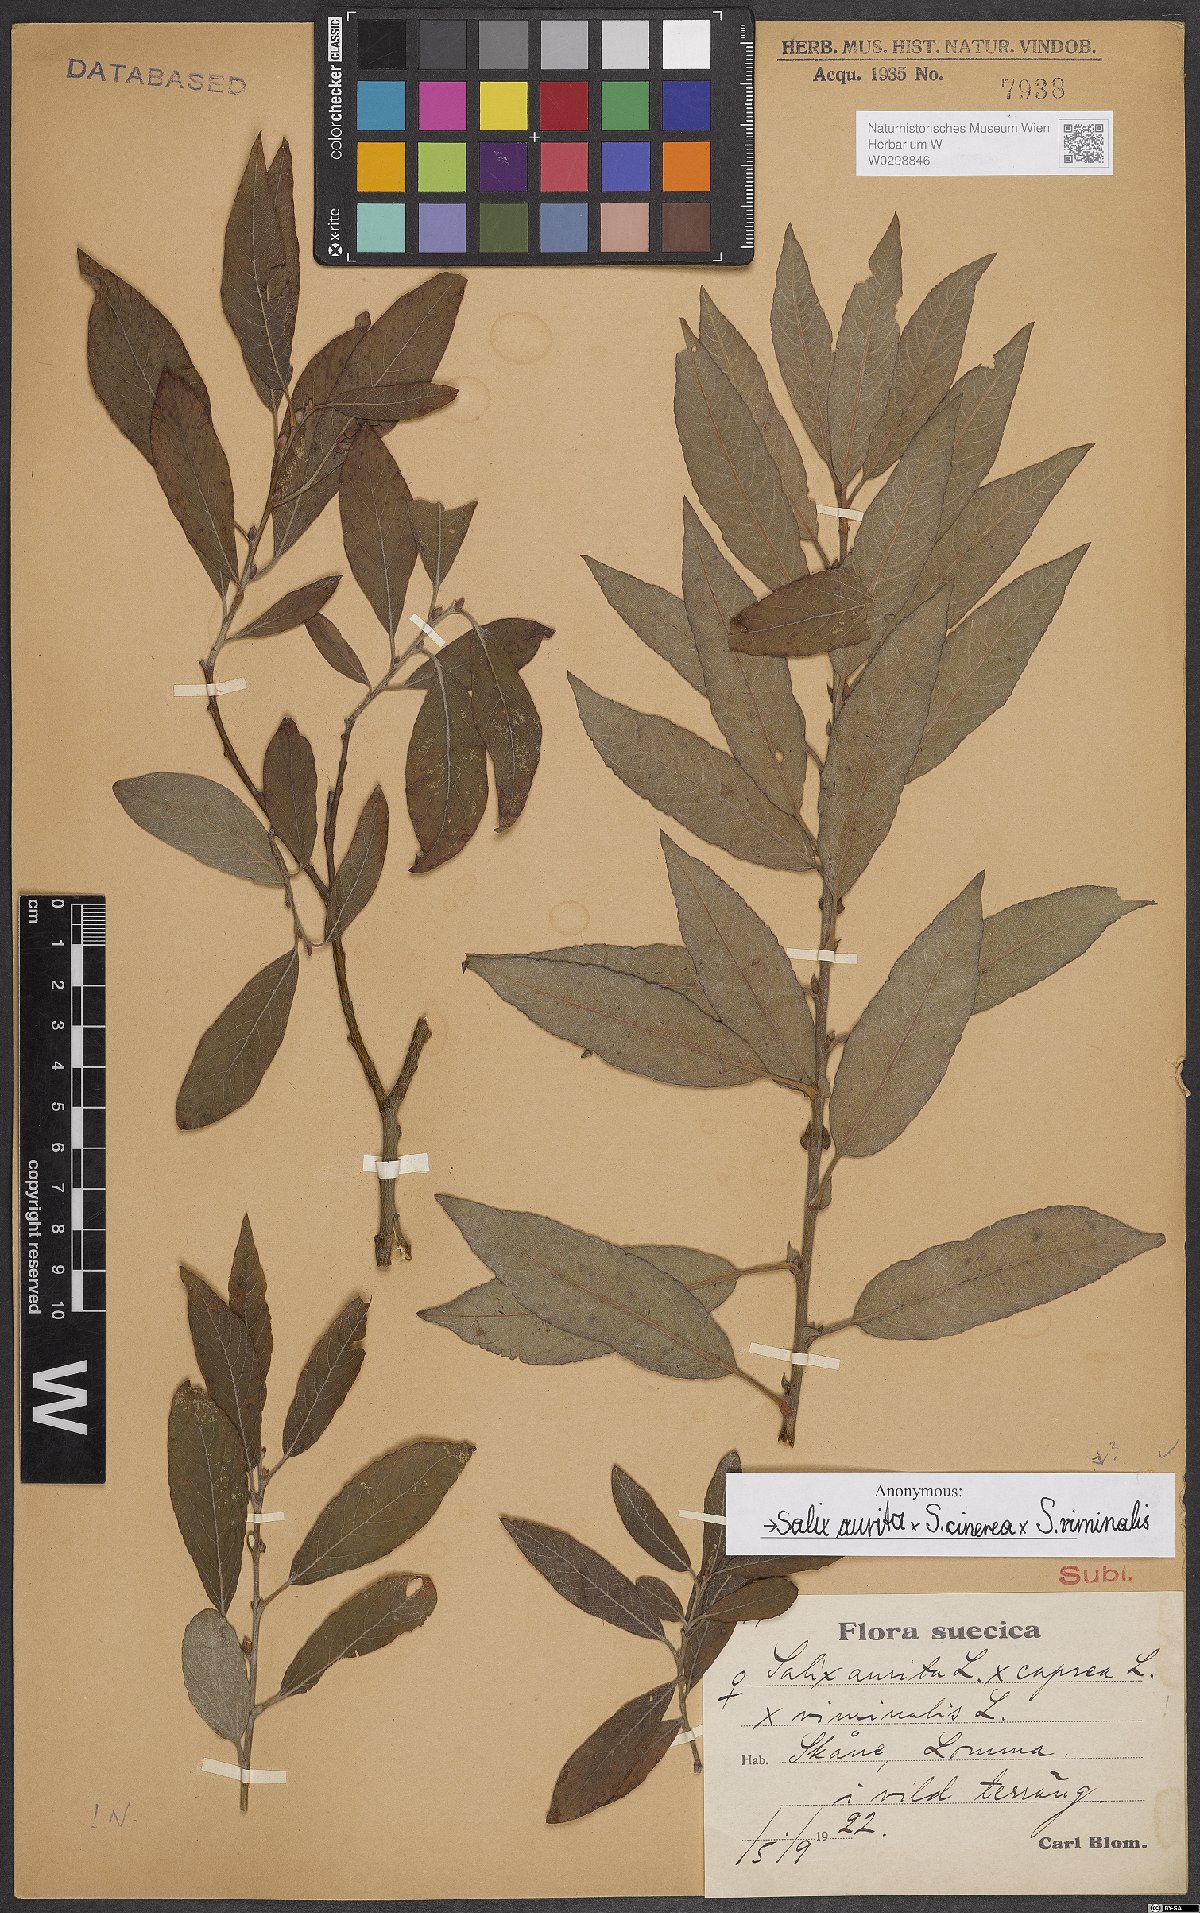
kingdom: Plantae
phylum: Tracheophyta
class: Magnoliopsida
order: Malpighiales
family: Salicaceae
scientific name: Salicaceae
